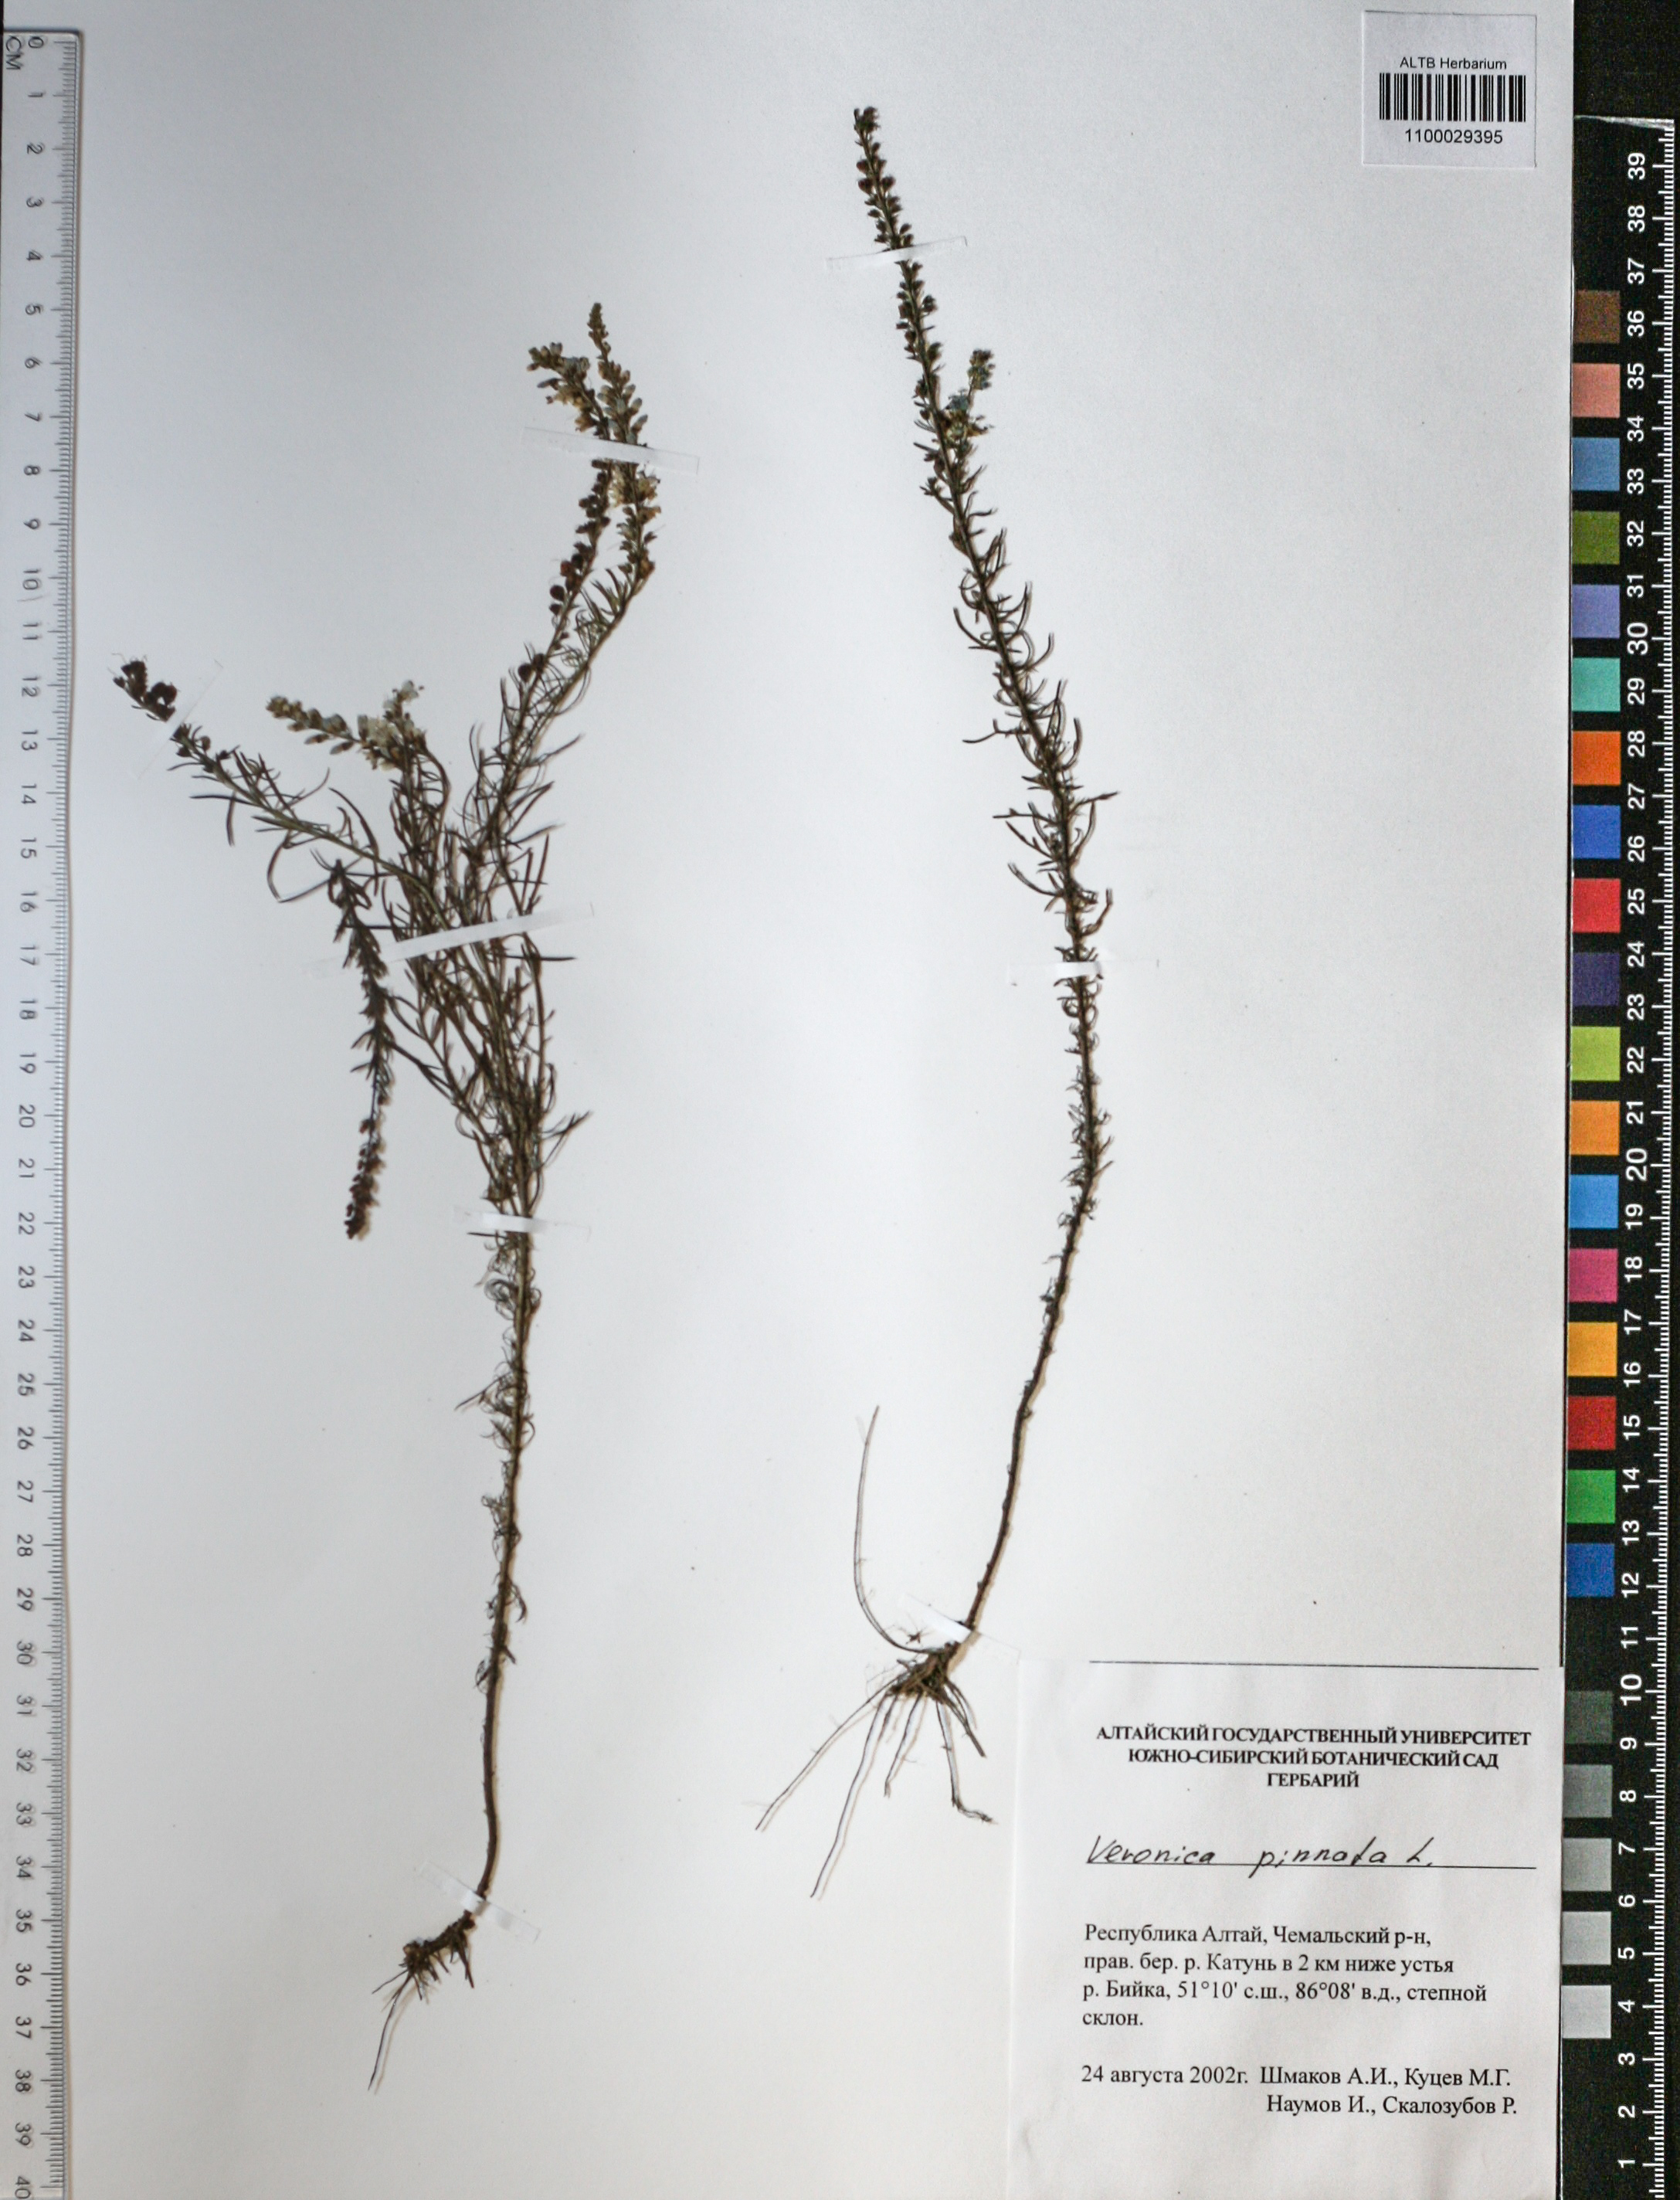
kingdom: Plantae
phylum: Tracheophyta
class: Magnoliopsida
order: Lamiales
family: Plantaginaceae
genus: Veronica
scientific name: Veronica pinnata
